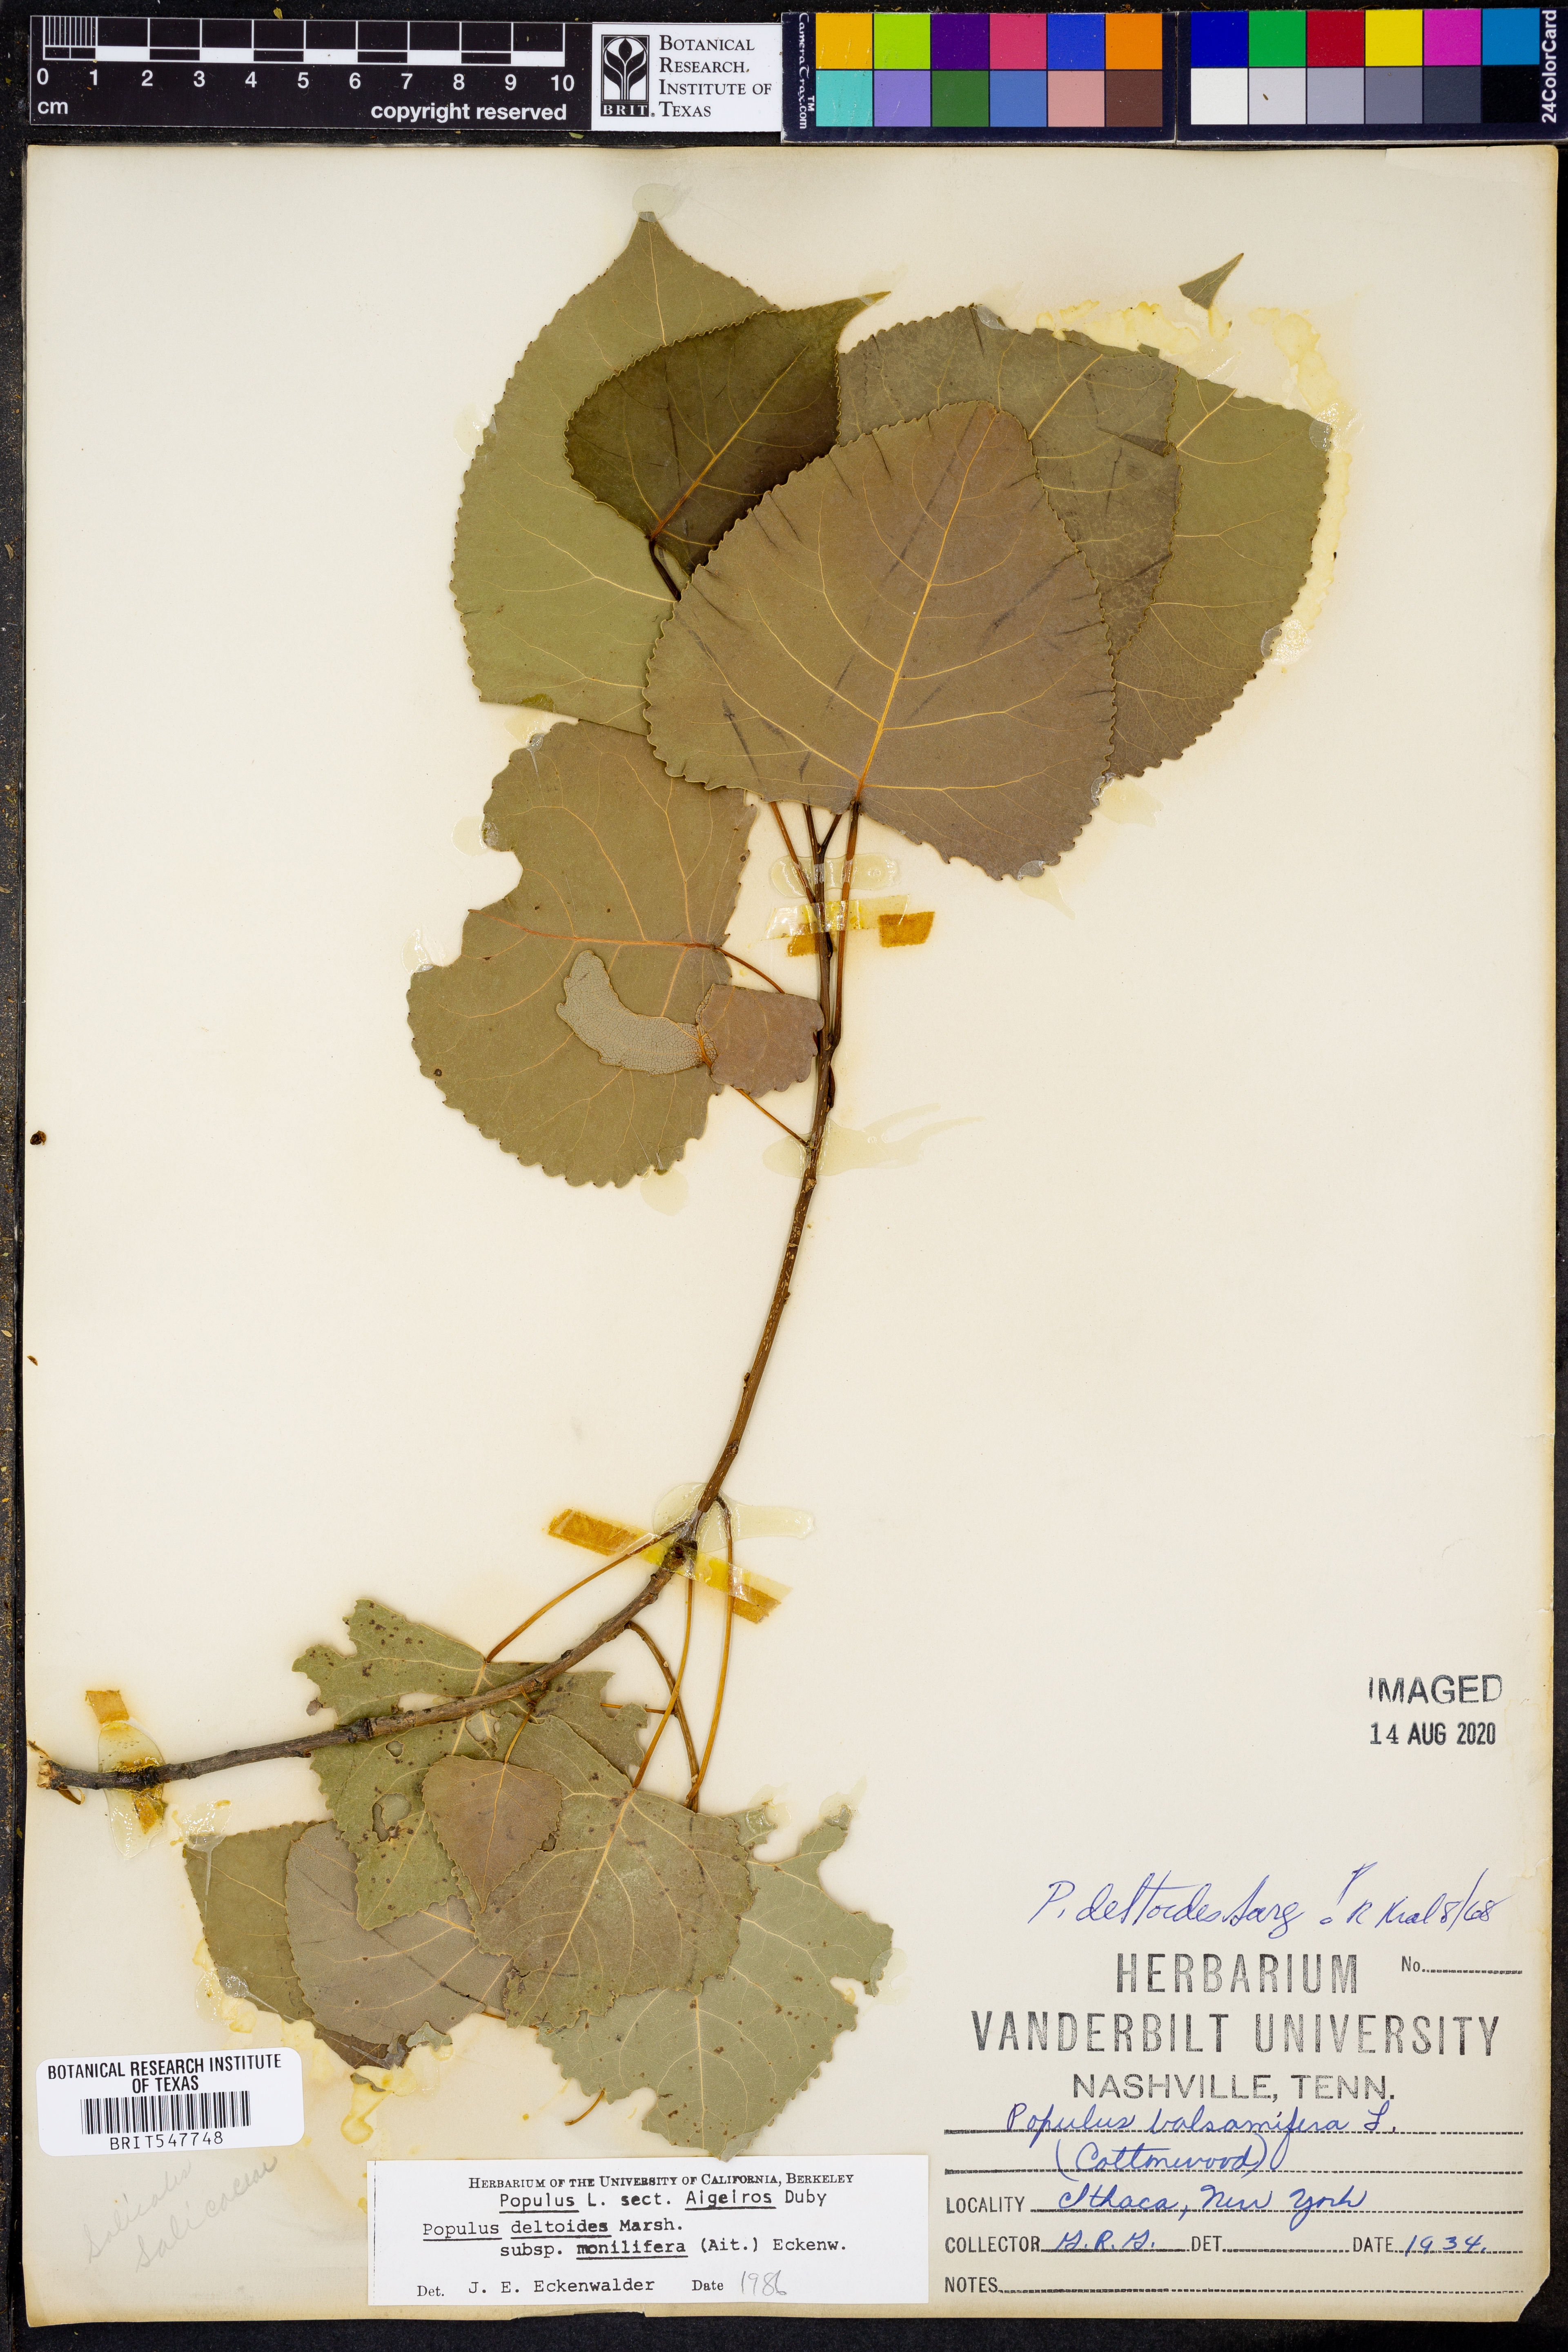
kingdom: Plantae
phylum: Tracheophyta
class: Magnoliopsida
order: Malpighiales
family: Salicaceae
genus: Populus
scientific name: Populus deltoides
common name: Eastern cottonwood
